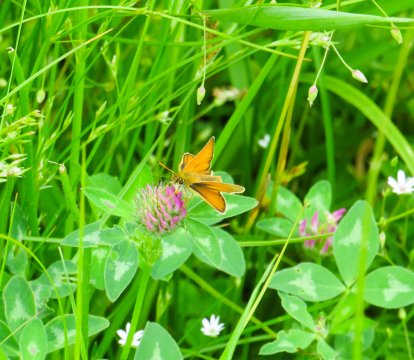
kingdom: Animalia
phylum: Arthropoda
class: Insecta
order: Lepidoptera
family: Hesperiidae
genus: Thymelicus
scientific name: Thymelicus lineola
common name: European Skipper
